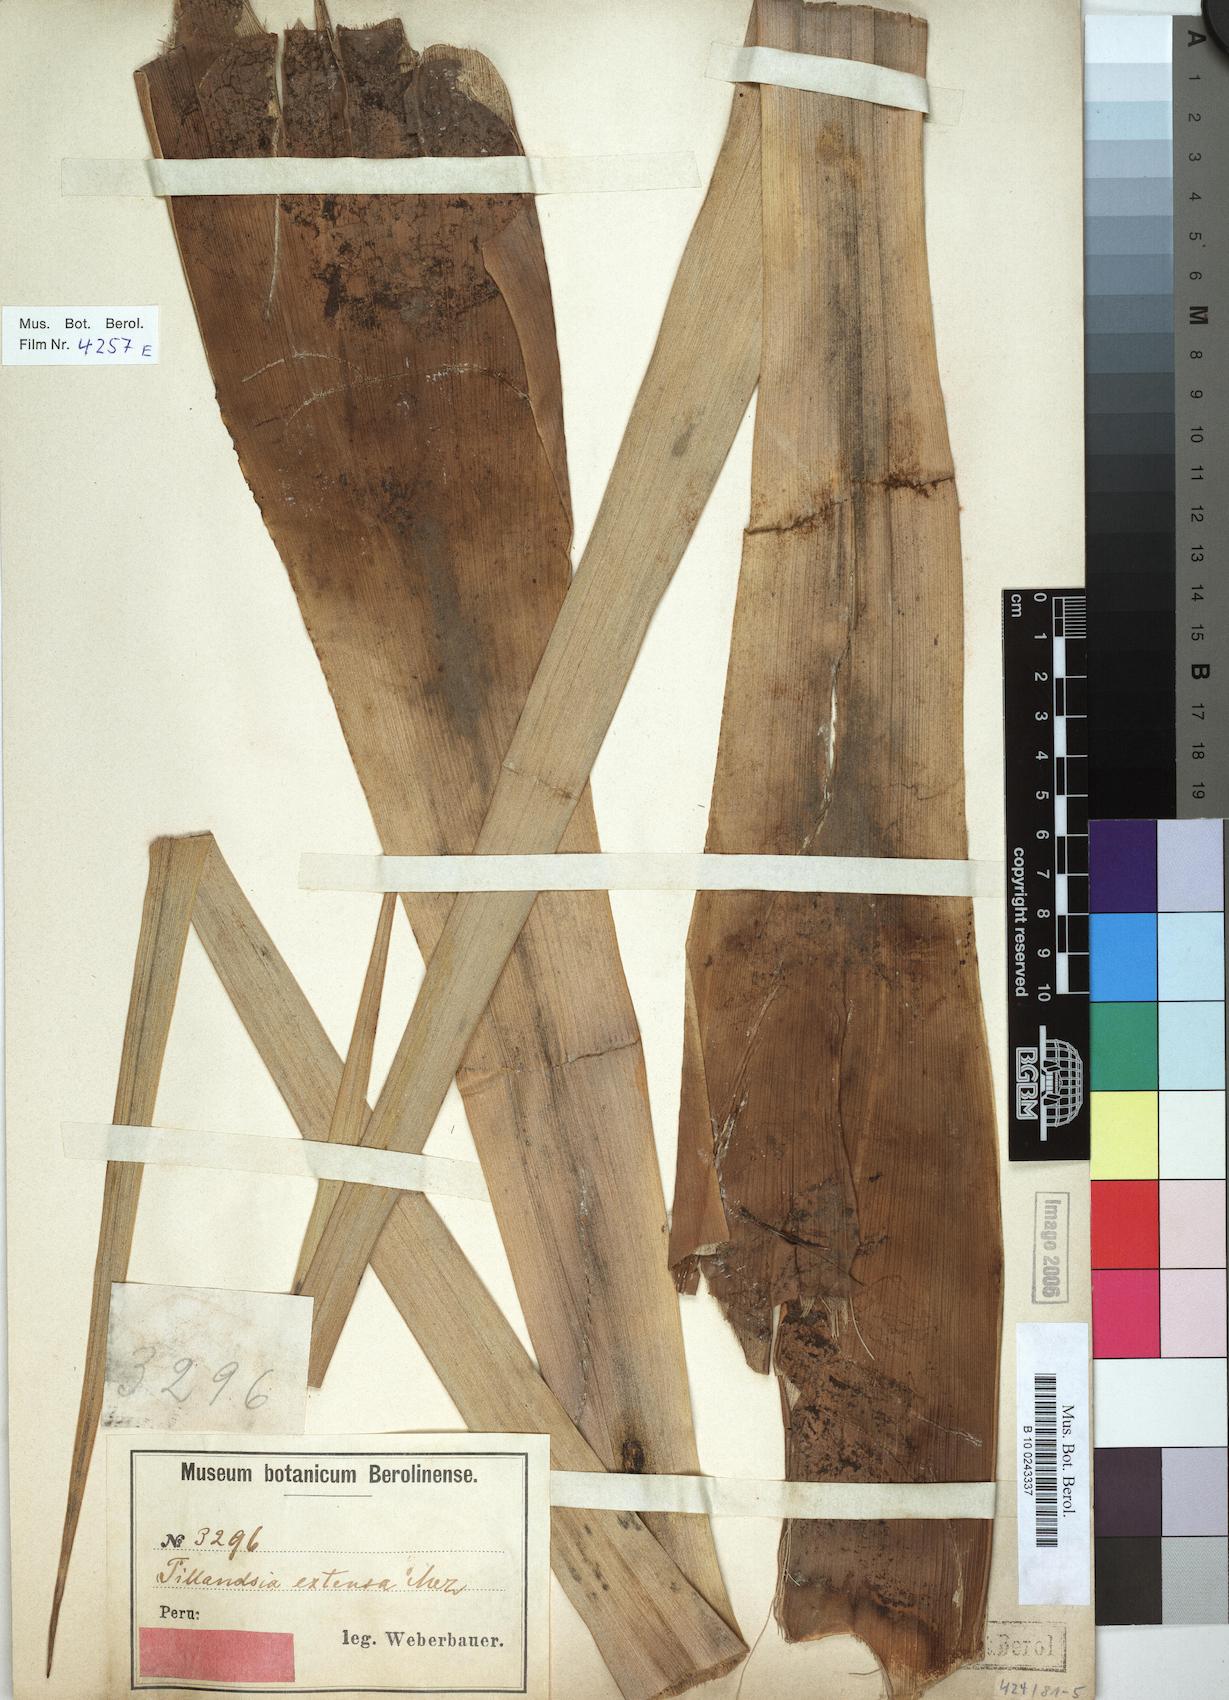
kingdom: Plantae
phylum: Tracheophyta
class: Liliopsida
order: Poales
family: Bromeliaceae
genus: Tillandsia
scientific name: Tillandsia extensa
